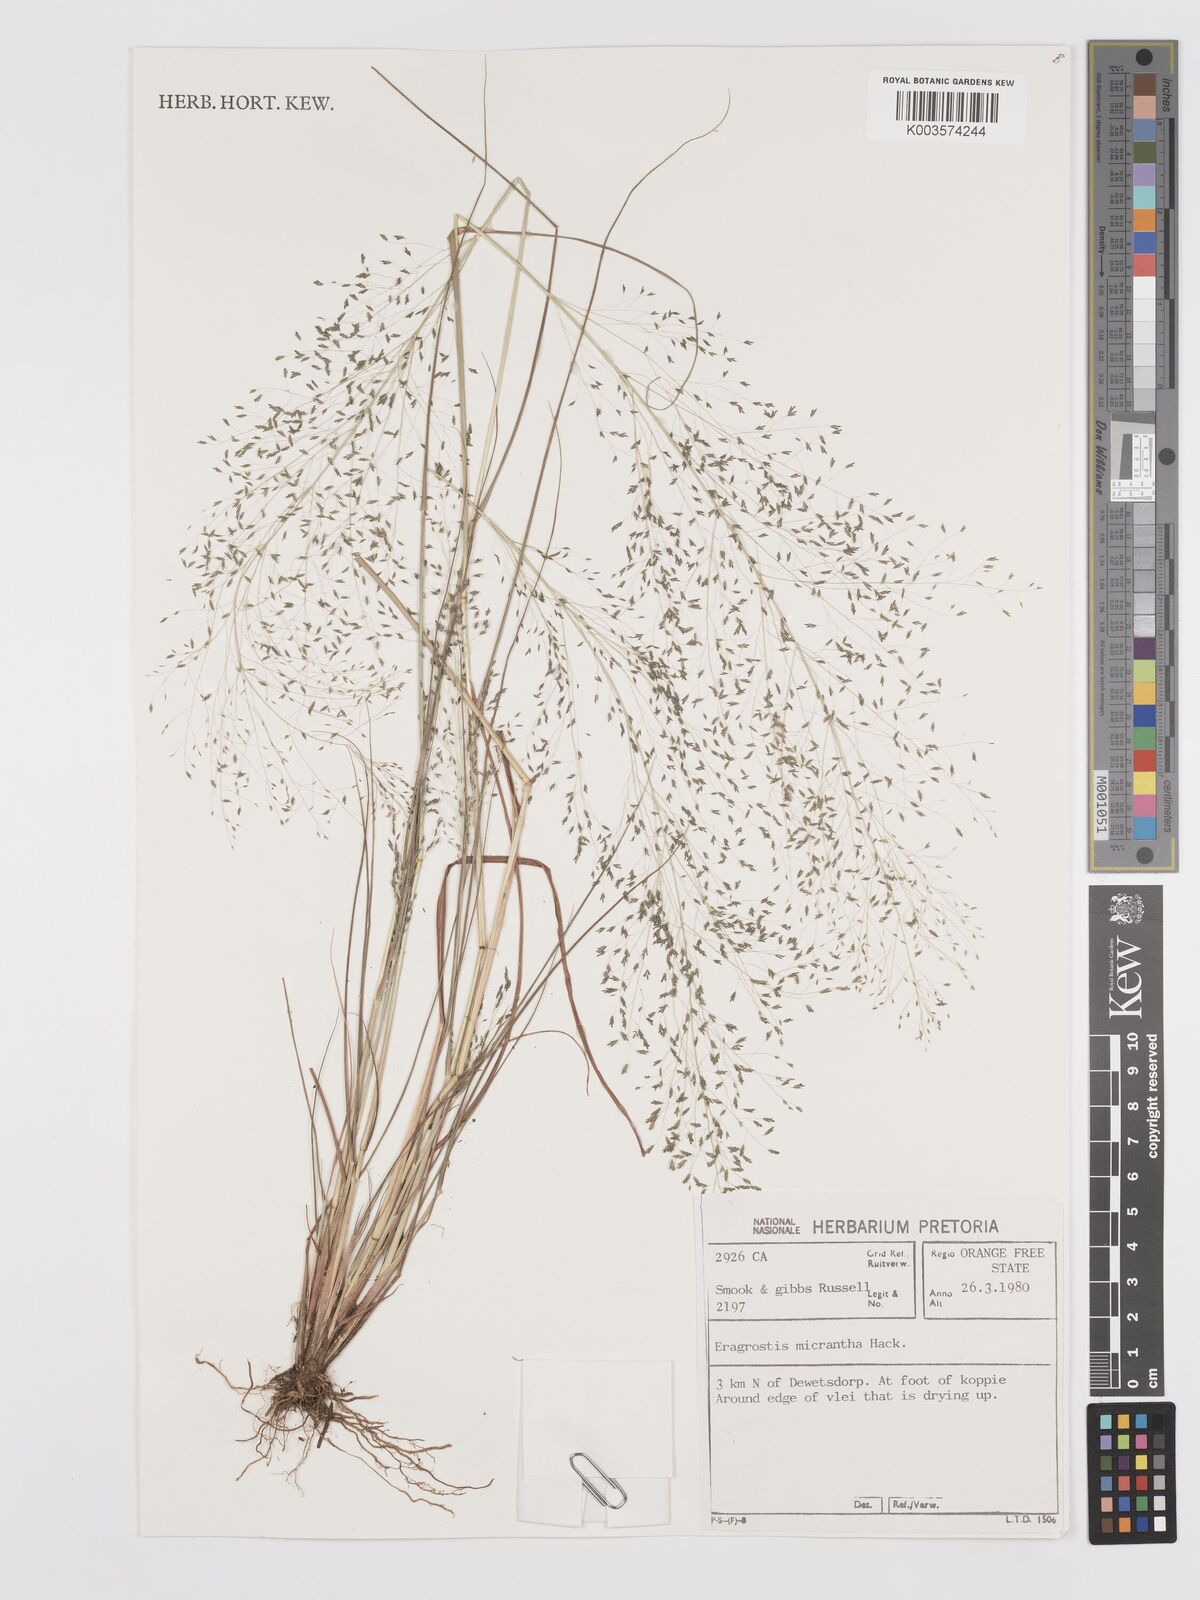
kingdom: Plantae
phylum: Tracheophyta
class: Liliopsida
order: Poales
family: Poaceae
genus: Eragrostis
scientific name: Eragrostis micrantha
